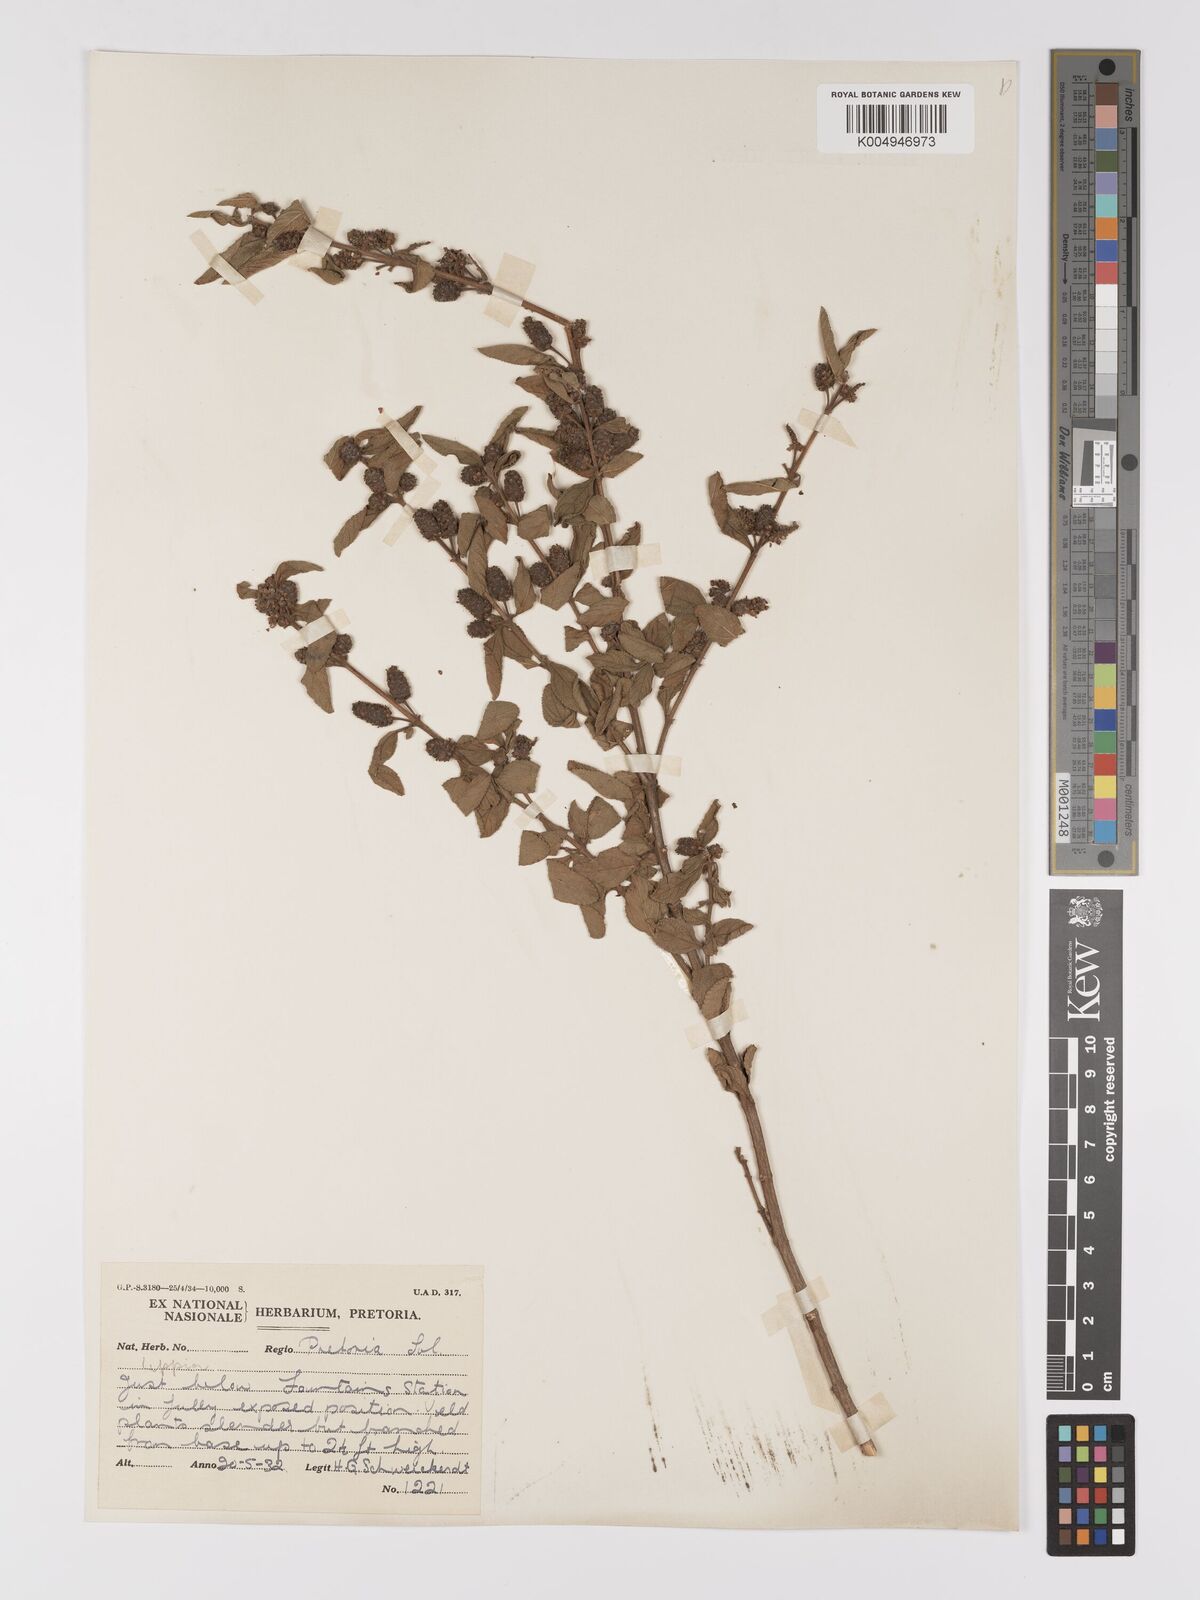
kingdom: Plantae
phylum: Tracheophyta
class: Magnoliopsida
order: Lamiales
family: Verbenaceae
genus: Lippia
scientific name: Lippia
